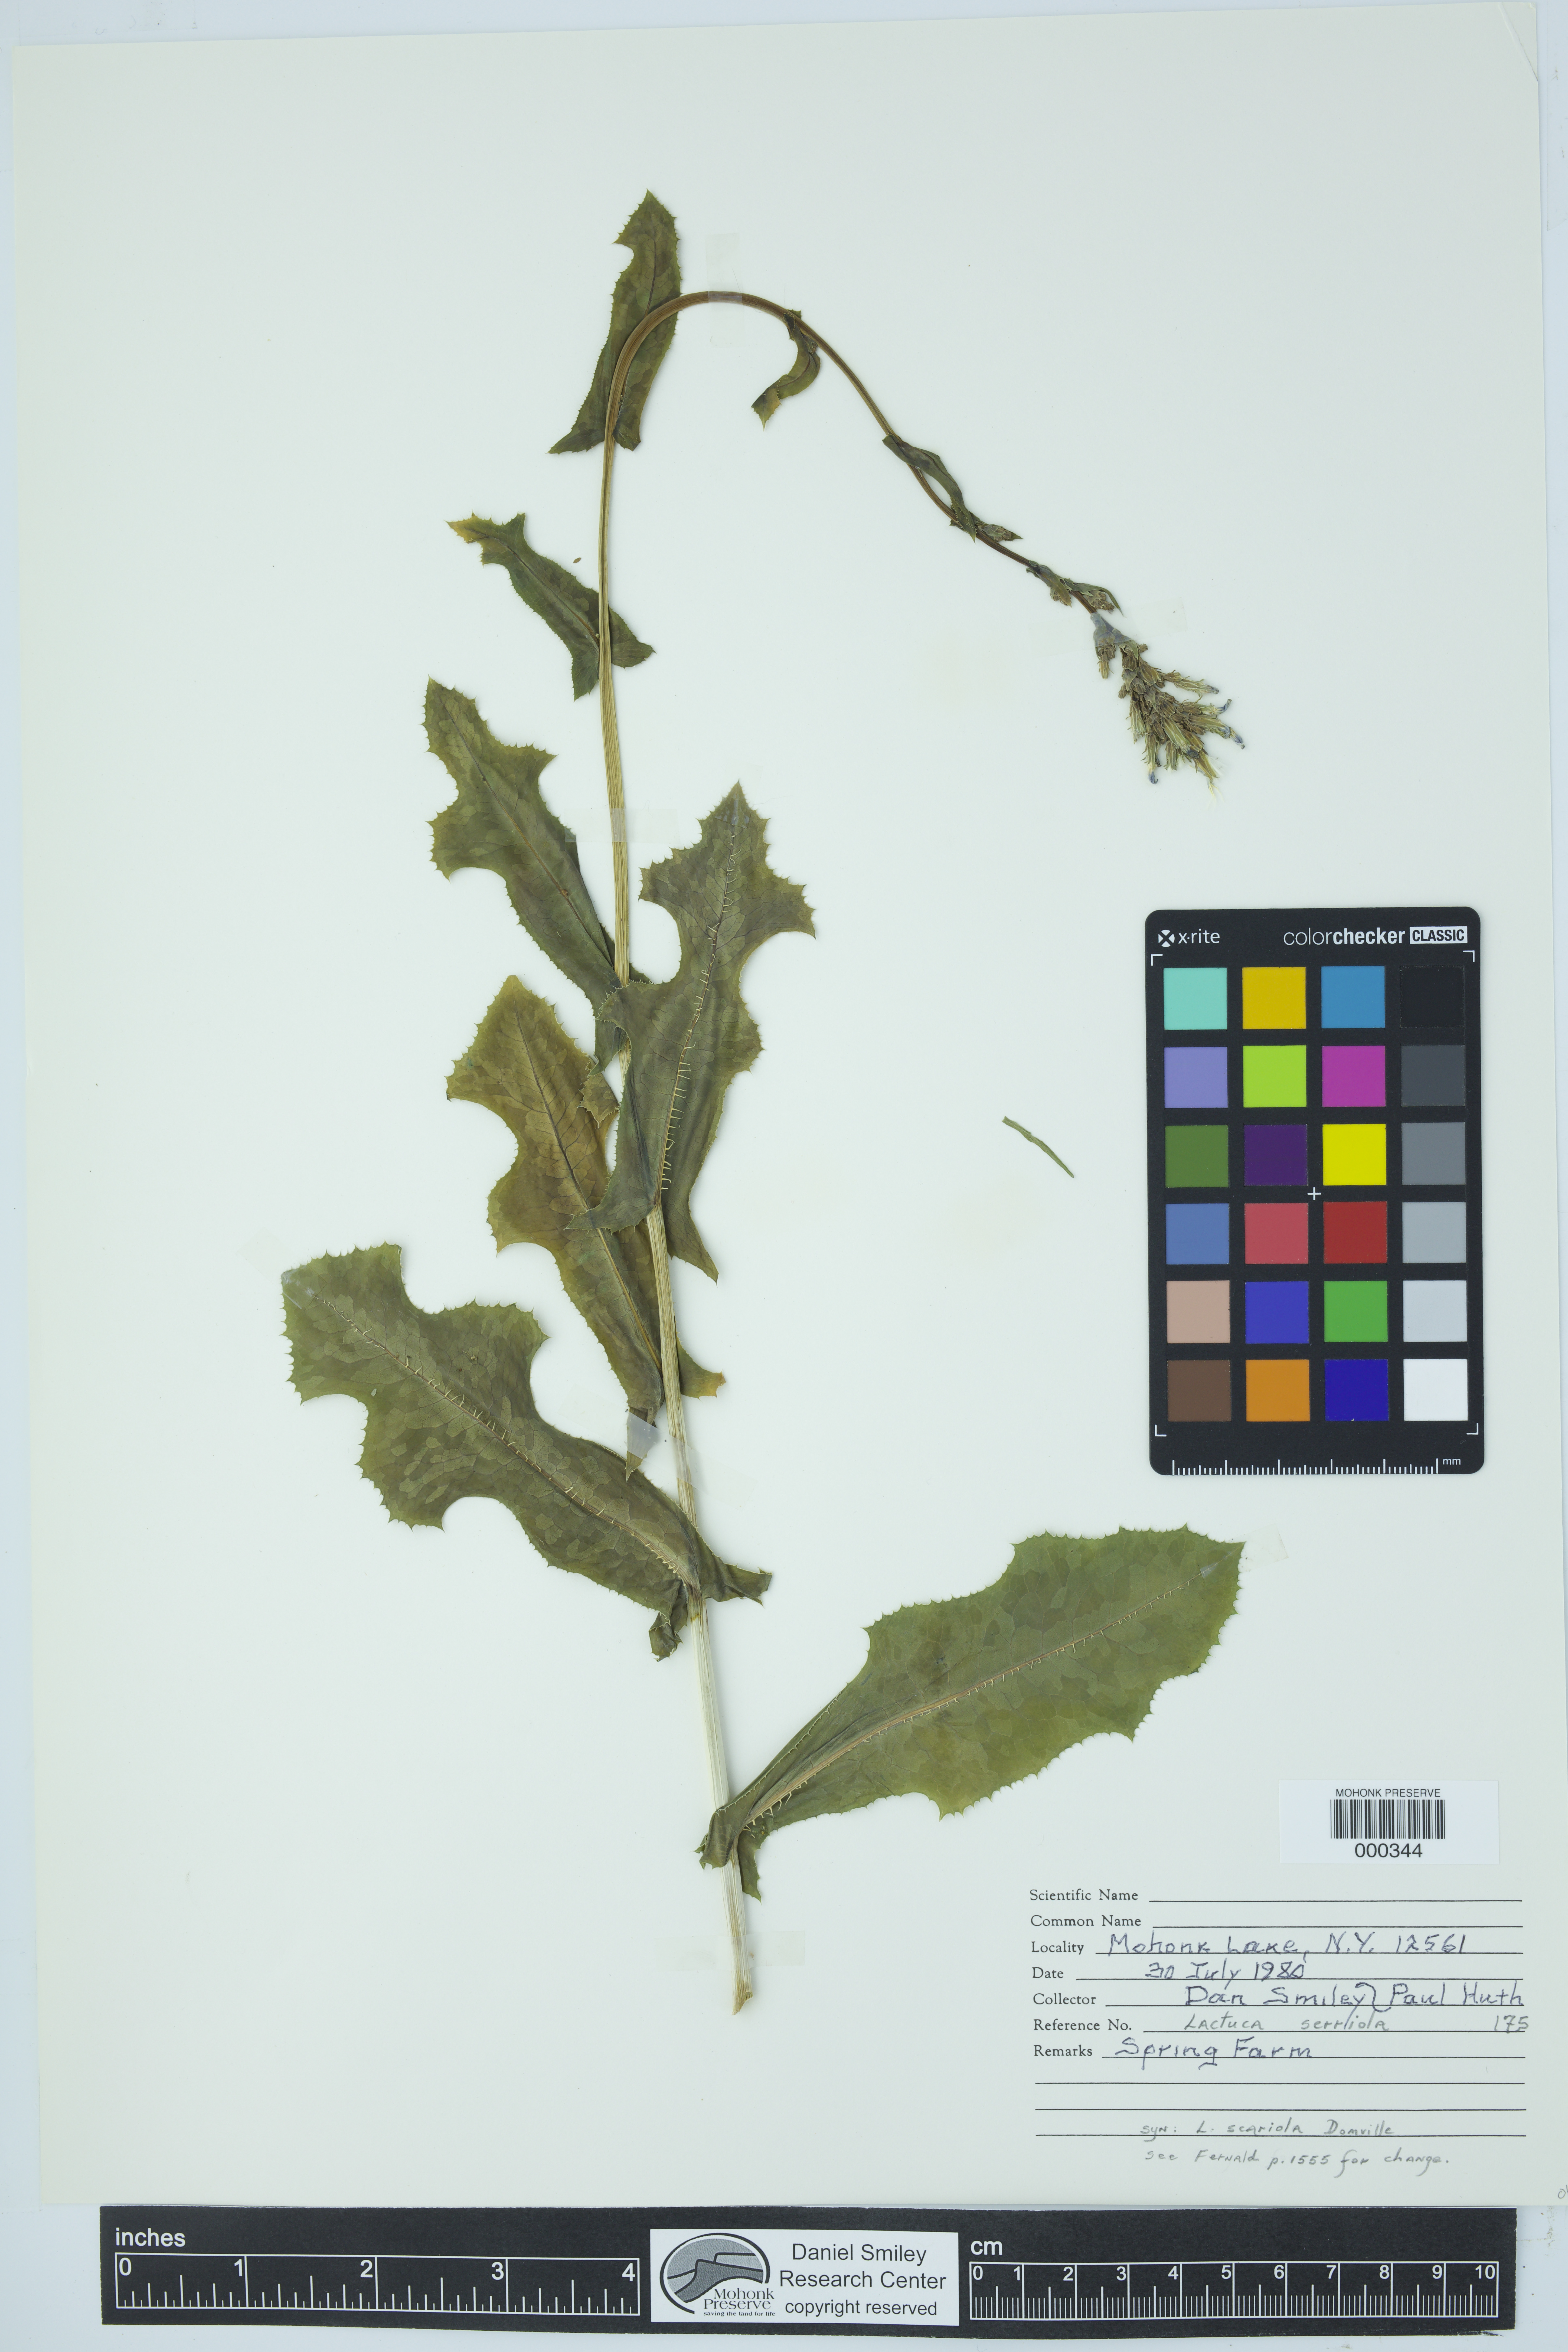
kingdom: Plantae
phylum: Tracheophyta
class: Magnoliopsida
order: Asterales
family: Asteraceae
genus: Lactuca
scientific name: Lactuca serriola
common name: Prickly lettuce
